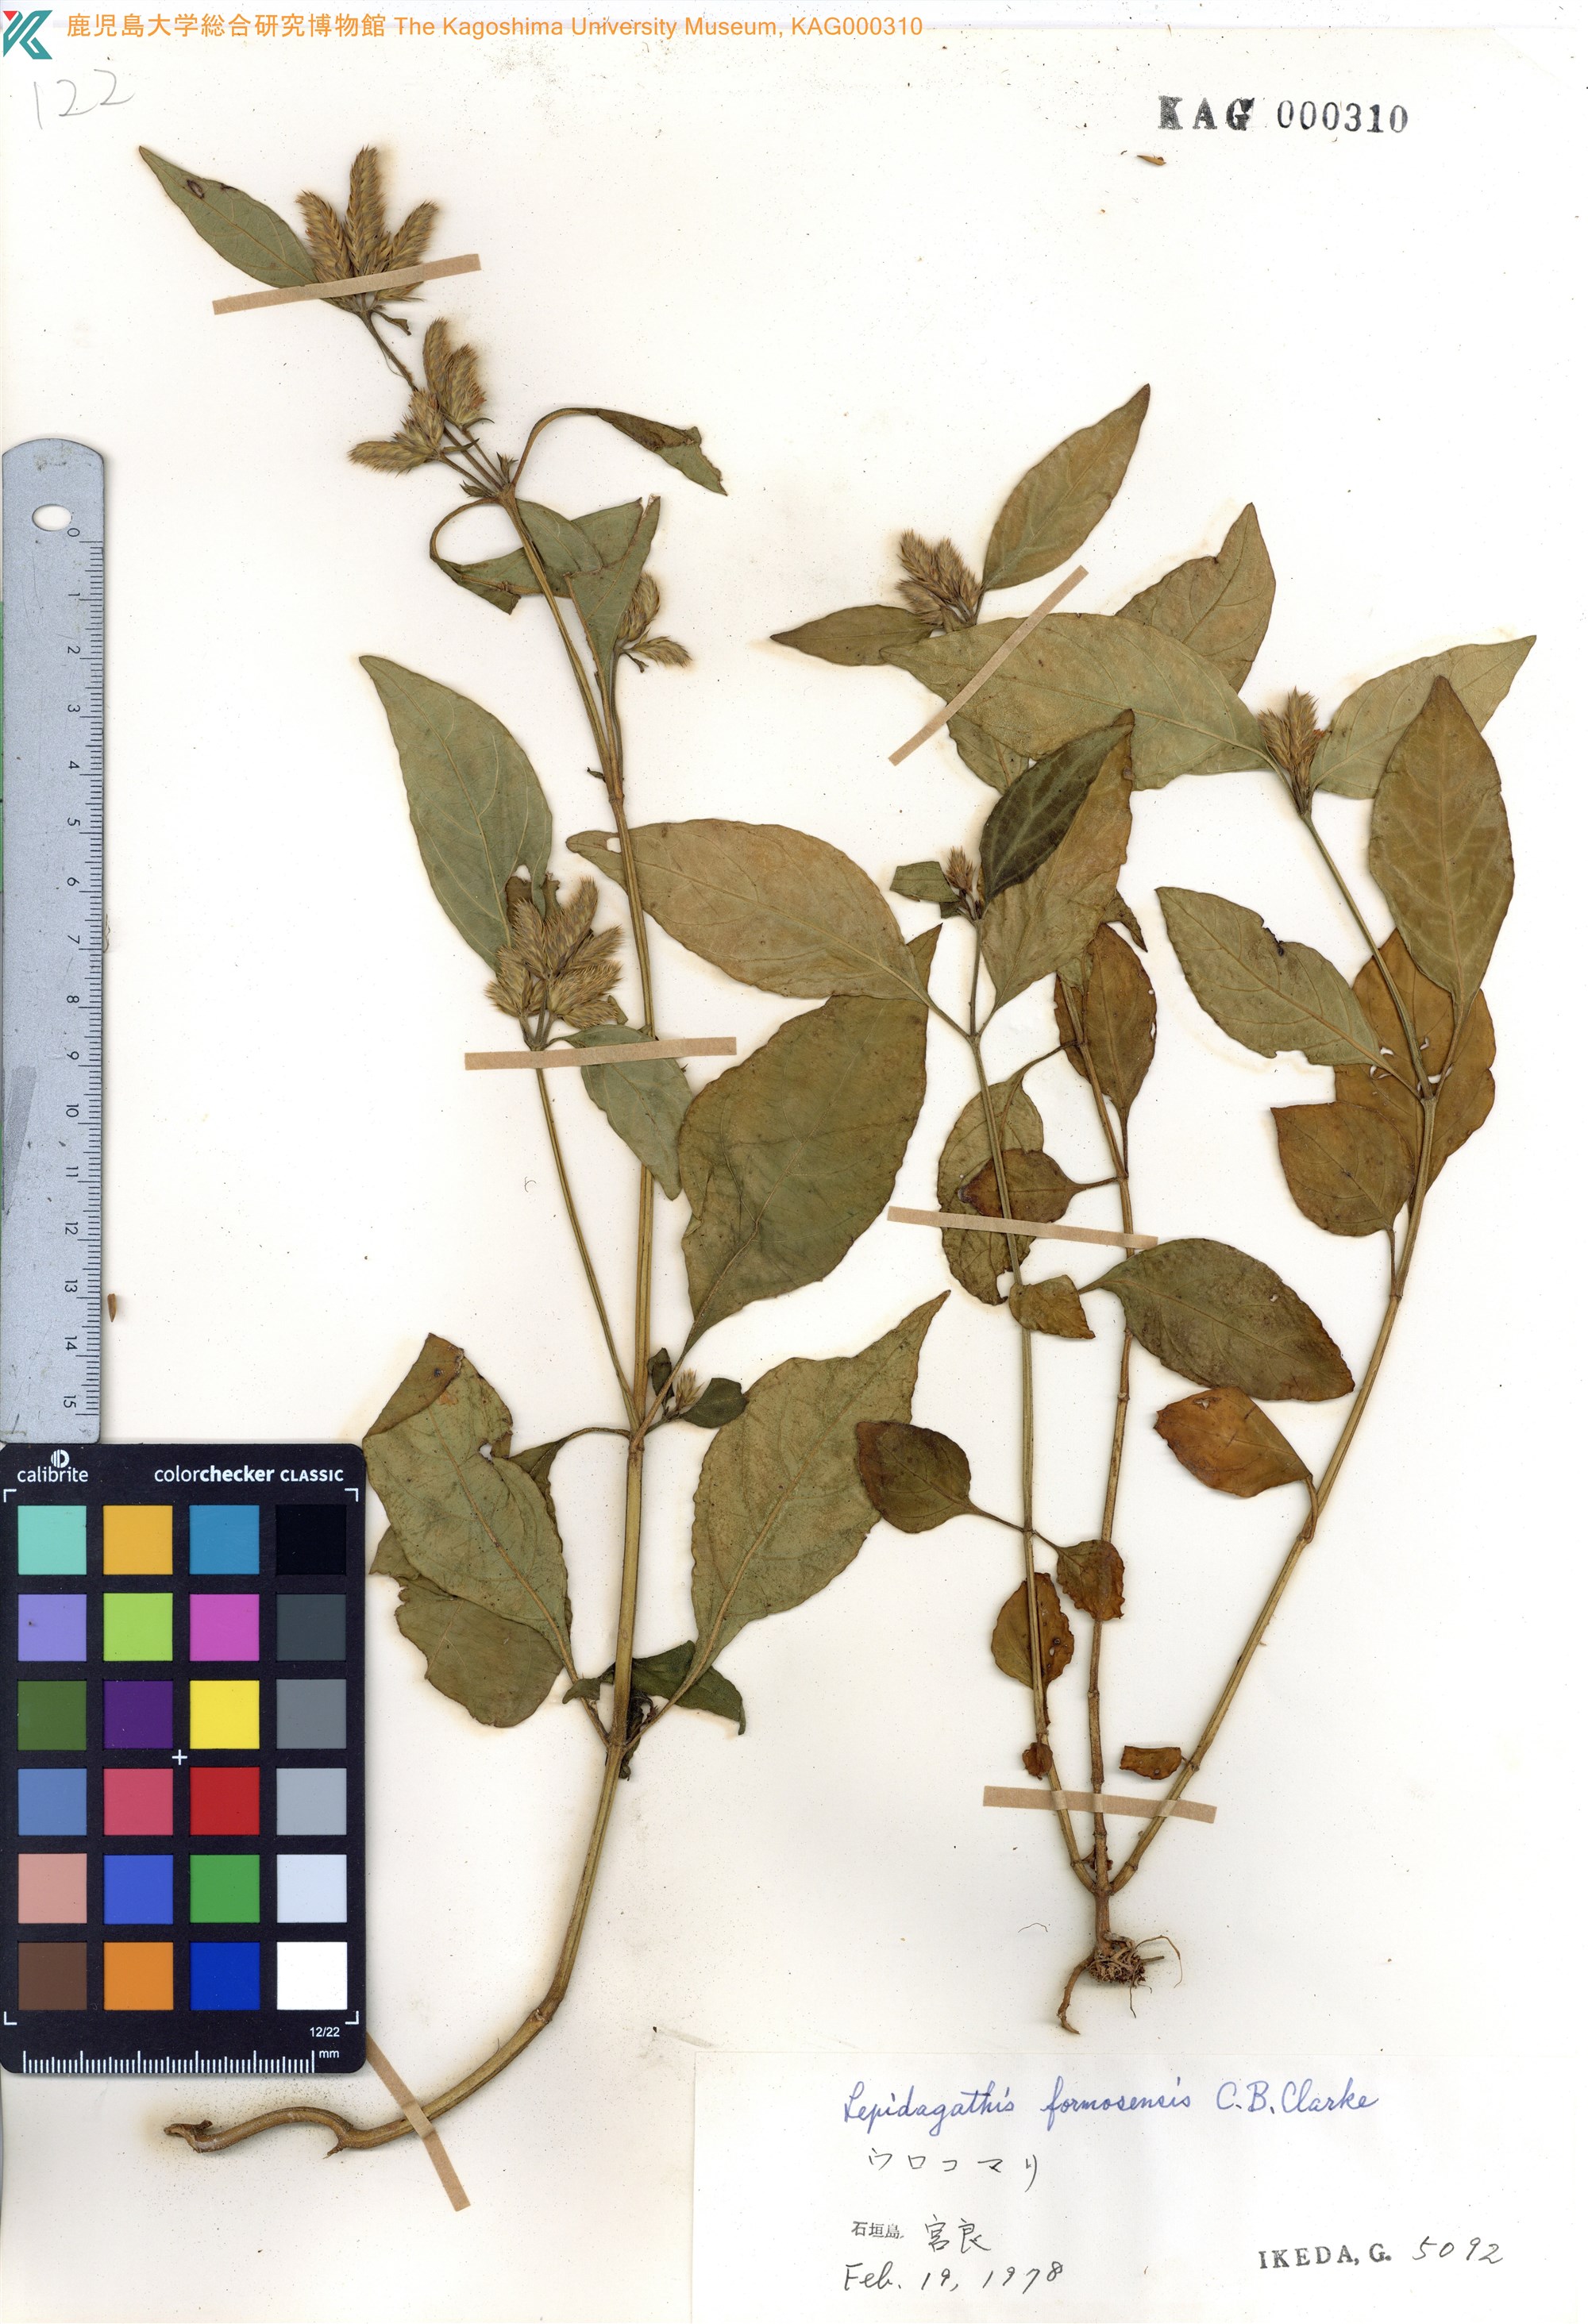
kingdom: Plantae
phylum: Tracheophyta
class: Magnoliopsida
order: Lamiales
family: Acanthaceae
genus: Lepidagathis
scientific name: Lepidagathis formosensis
